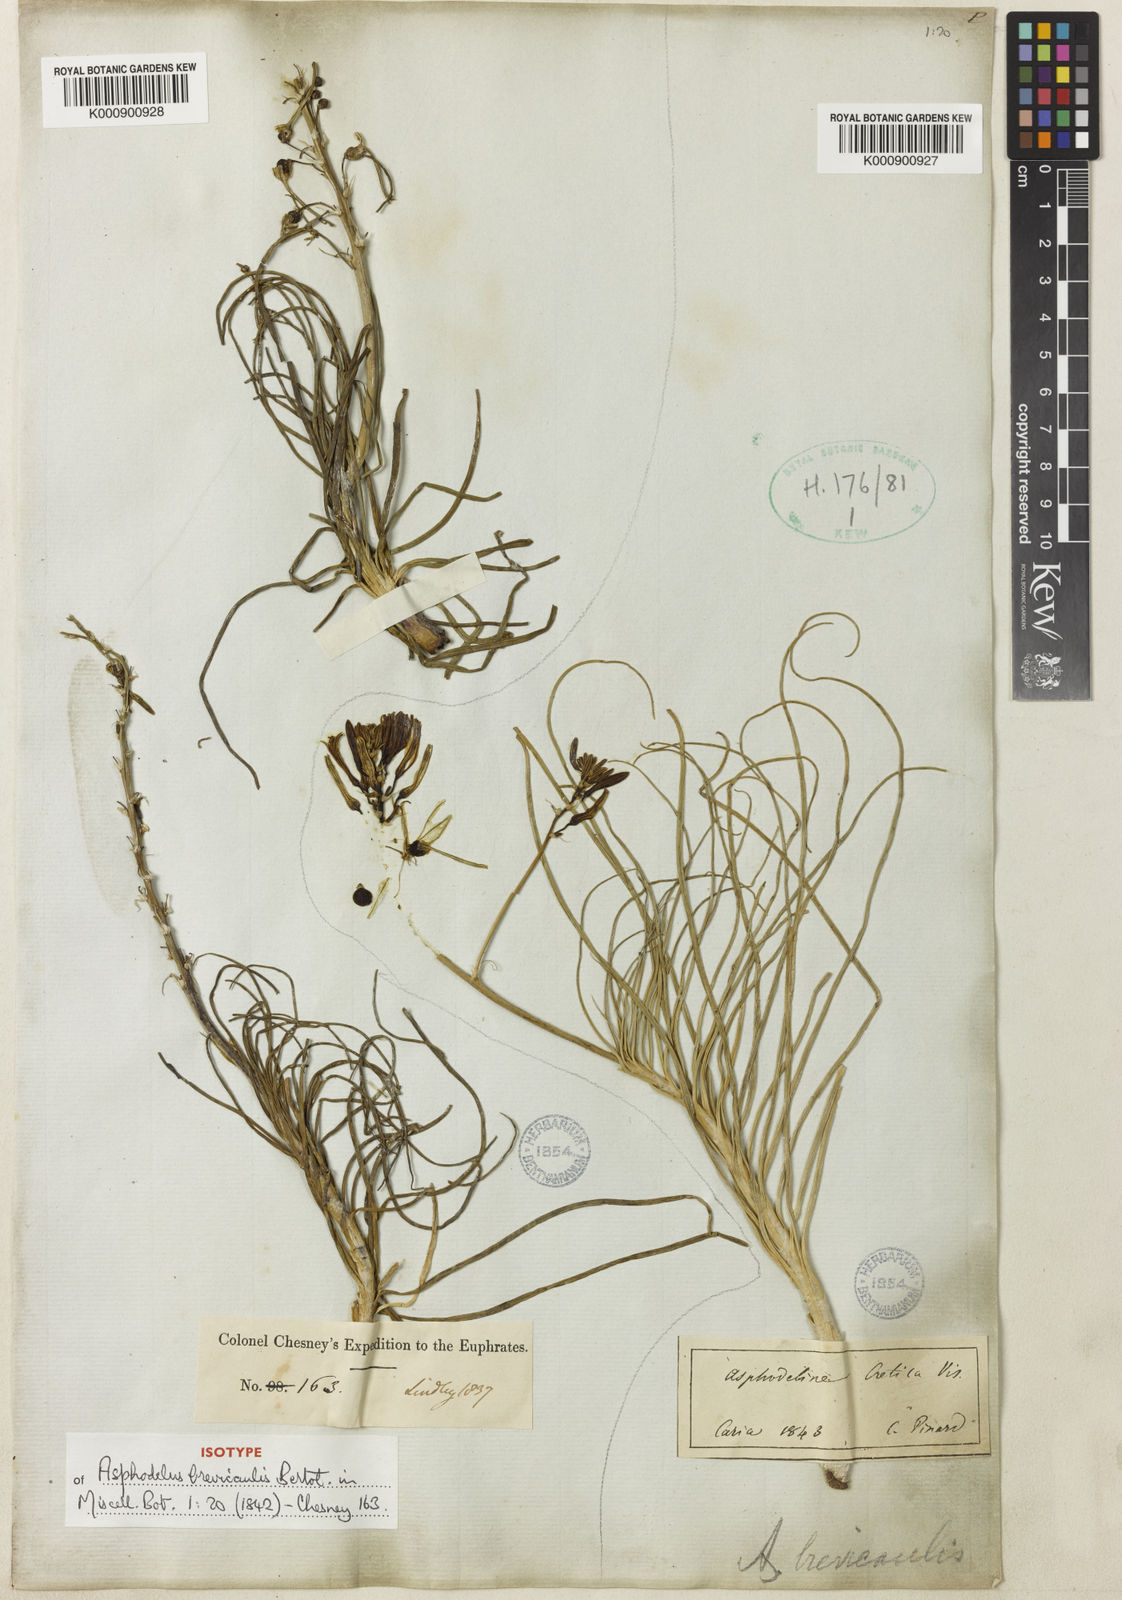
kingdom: Plantae
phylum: Tracheophyta
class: Liliopsida
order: Asparagales
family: Asphodelaceae
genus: Asphodeline
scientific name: Asphodeline brevicaulis
